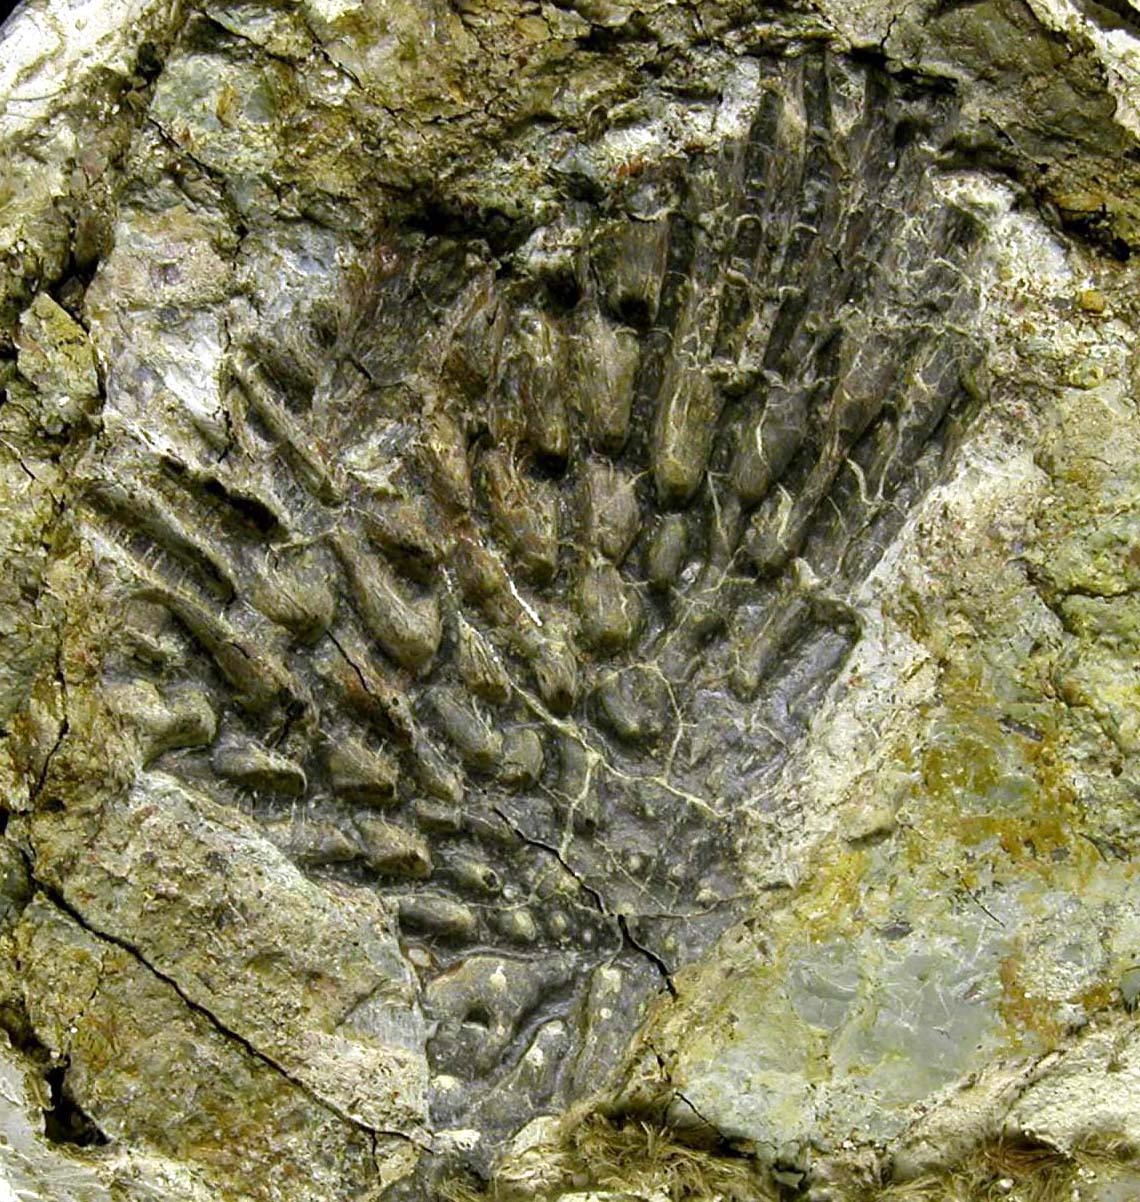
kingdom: Animalia
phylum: Chordata
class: Amphibia
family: Capitosauridae
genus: Cyclotosaurus
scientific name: Cyclotosaurus
